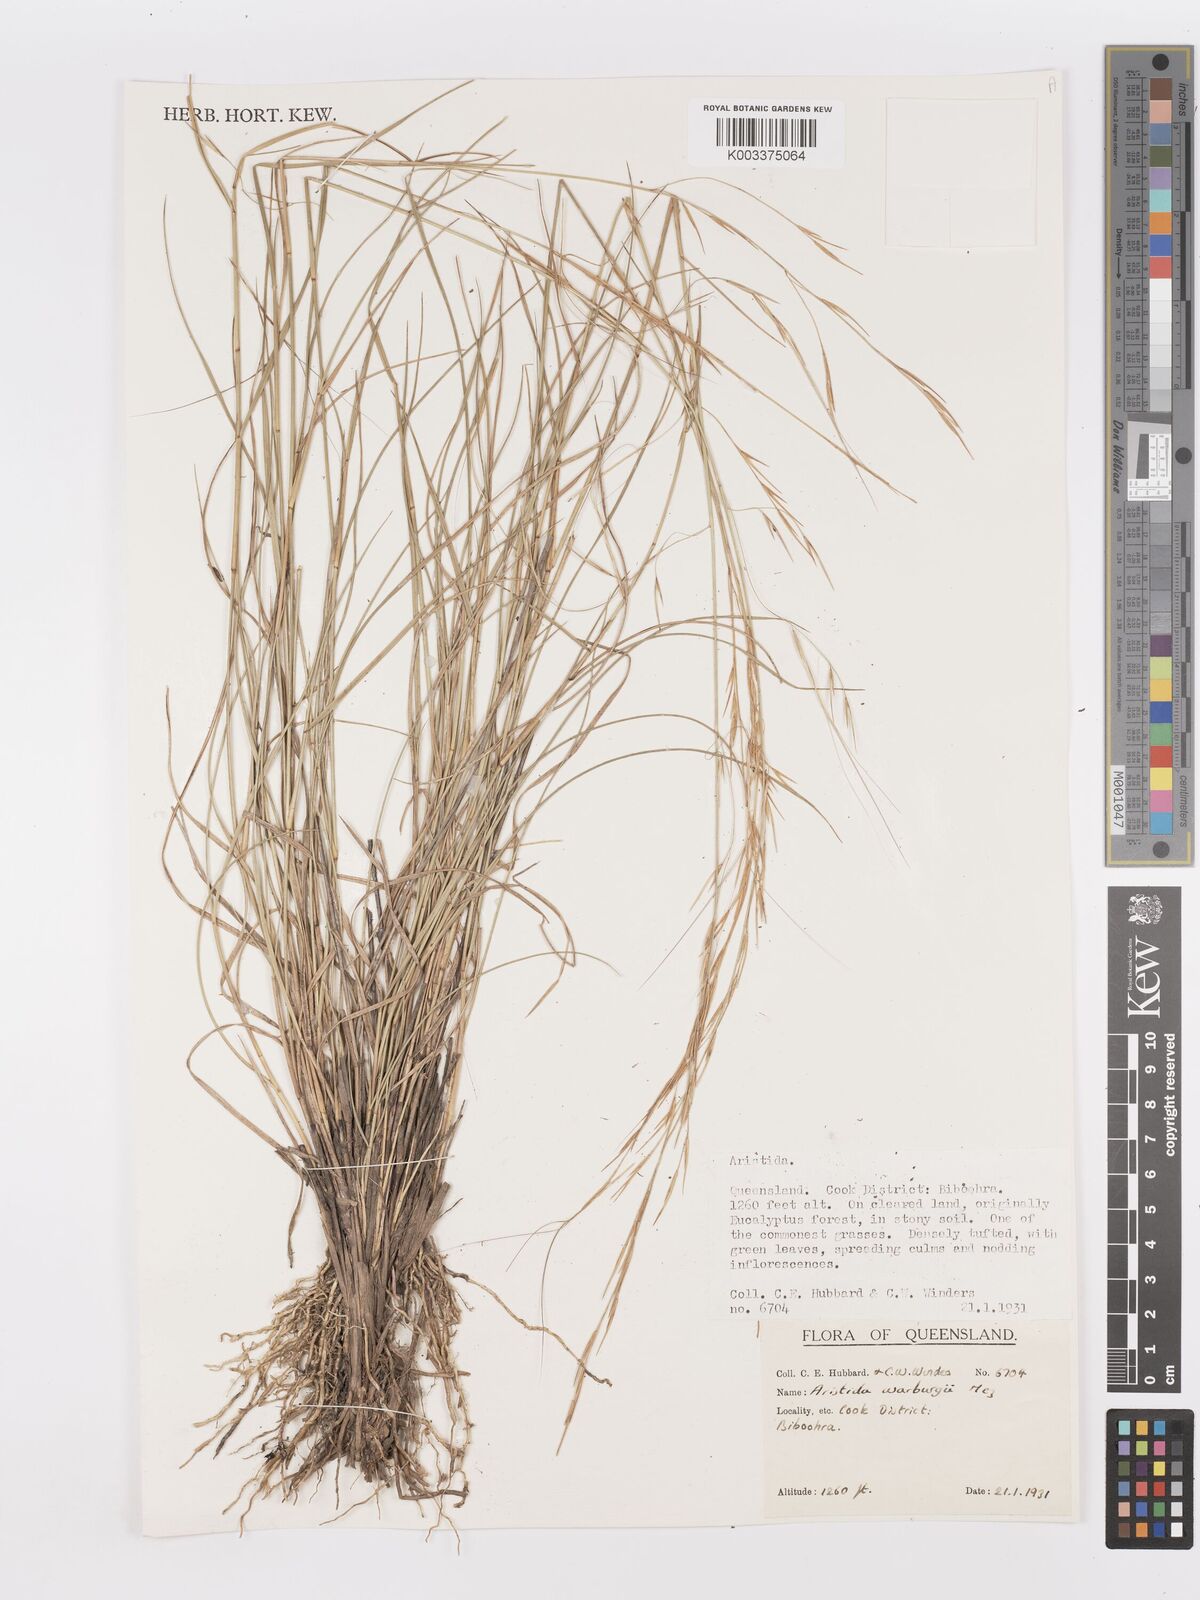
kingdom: Plantae
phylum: Tracheophyta
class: Liliopsida
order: Poales
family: Poaceae
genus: Aristida
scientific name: Aristida warburgii
